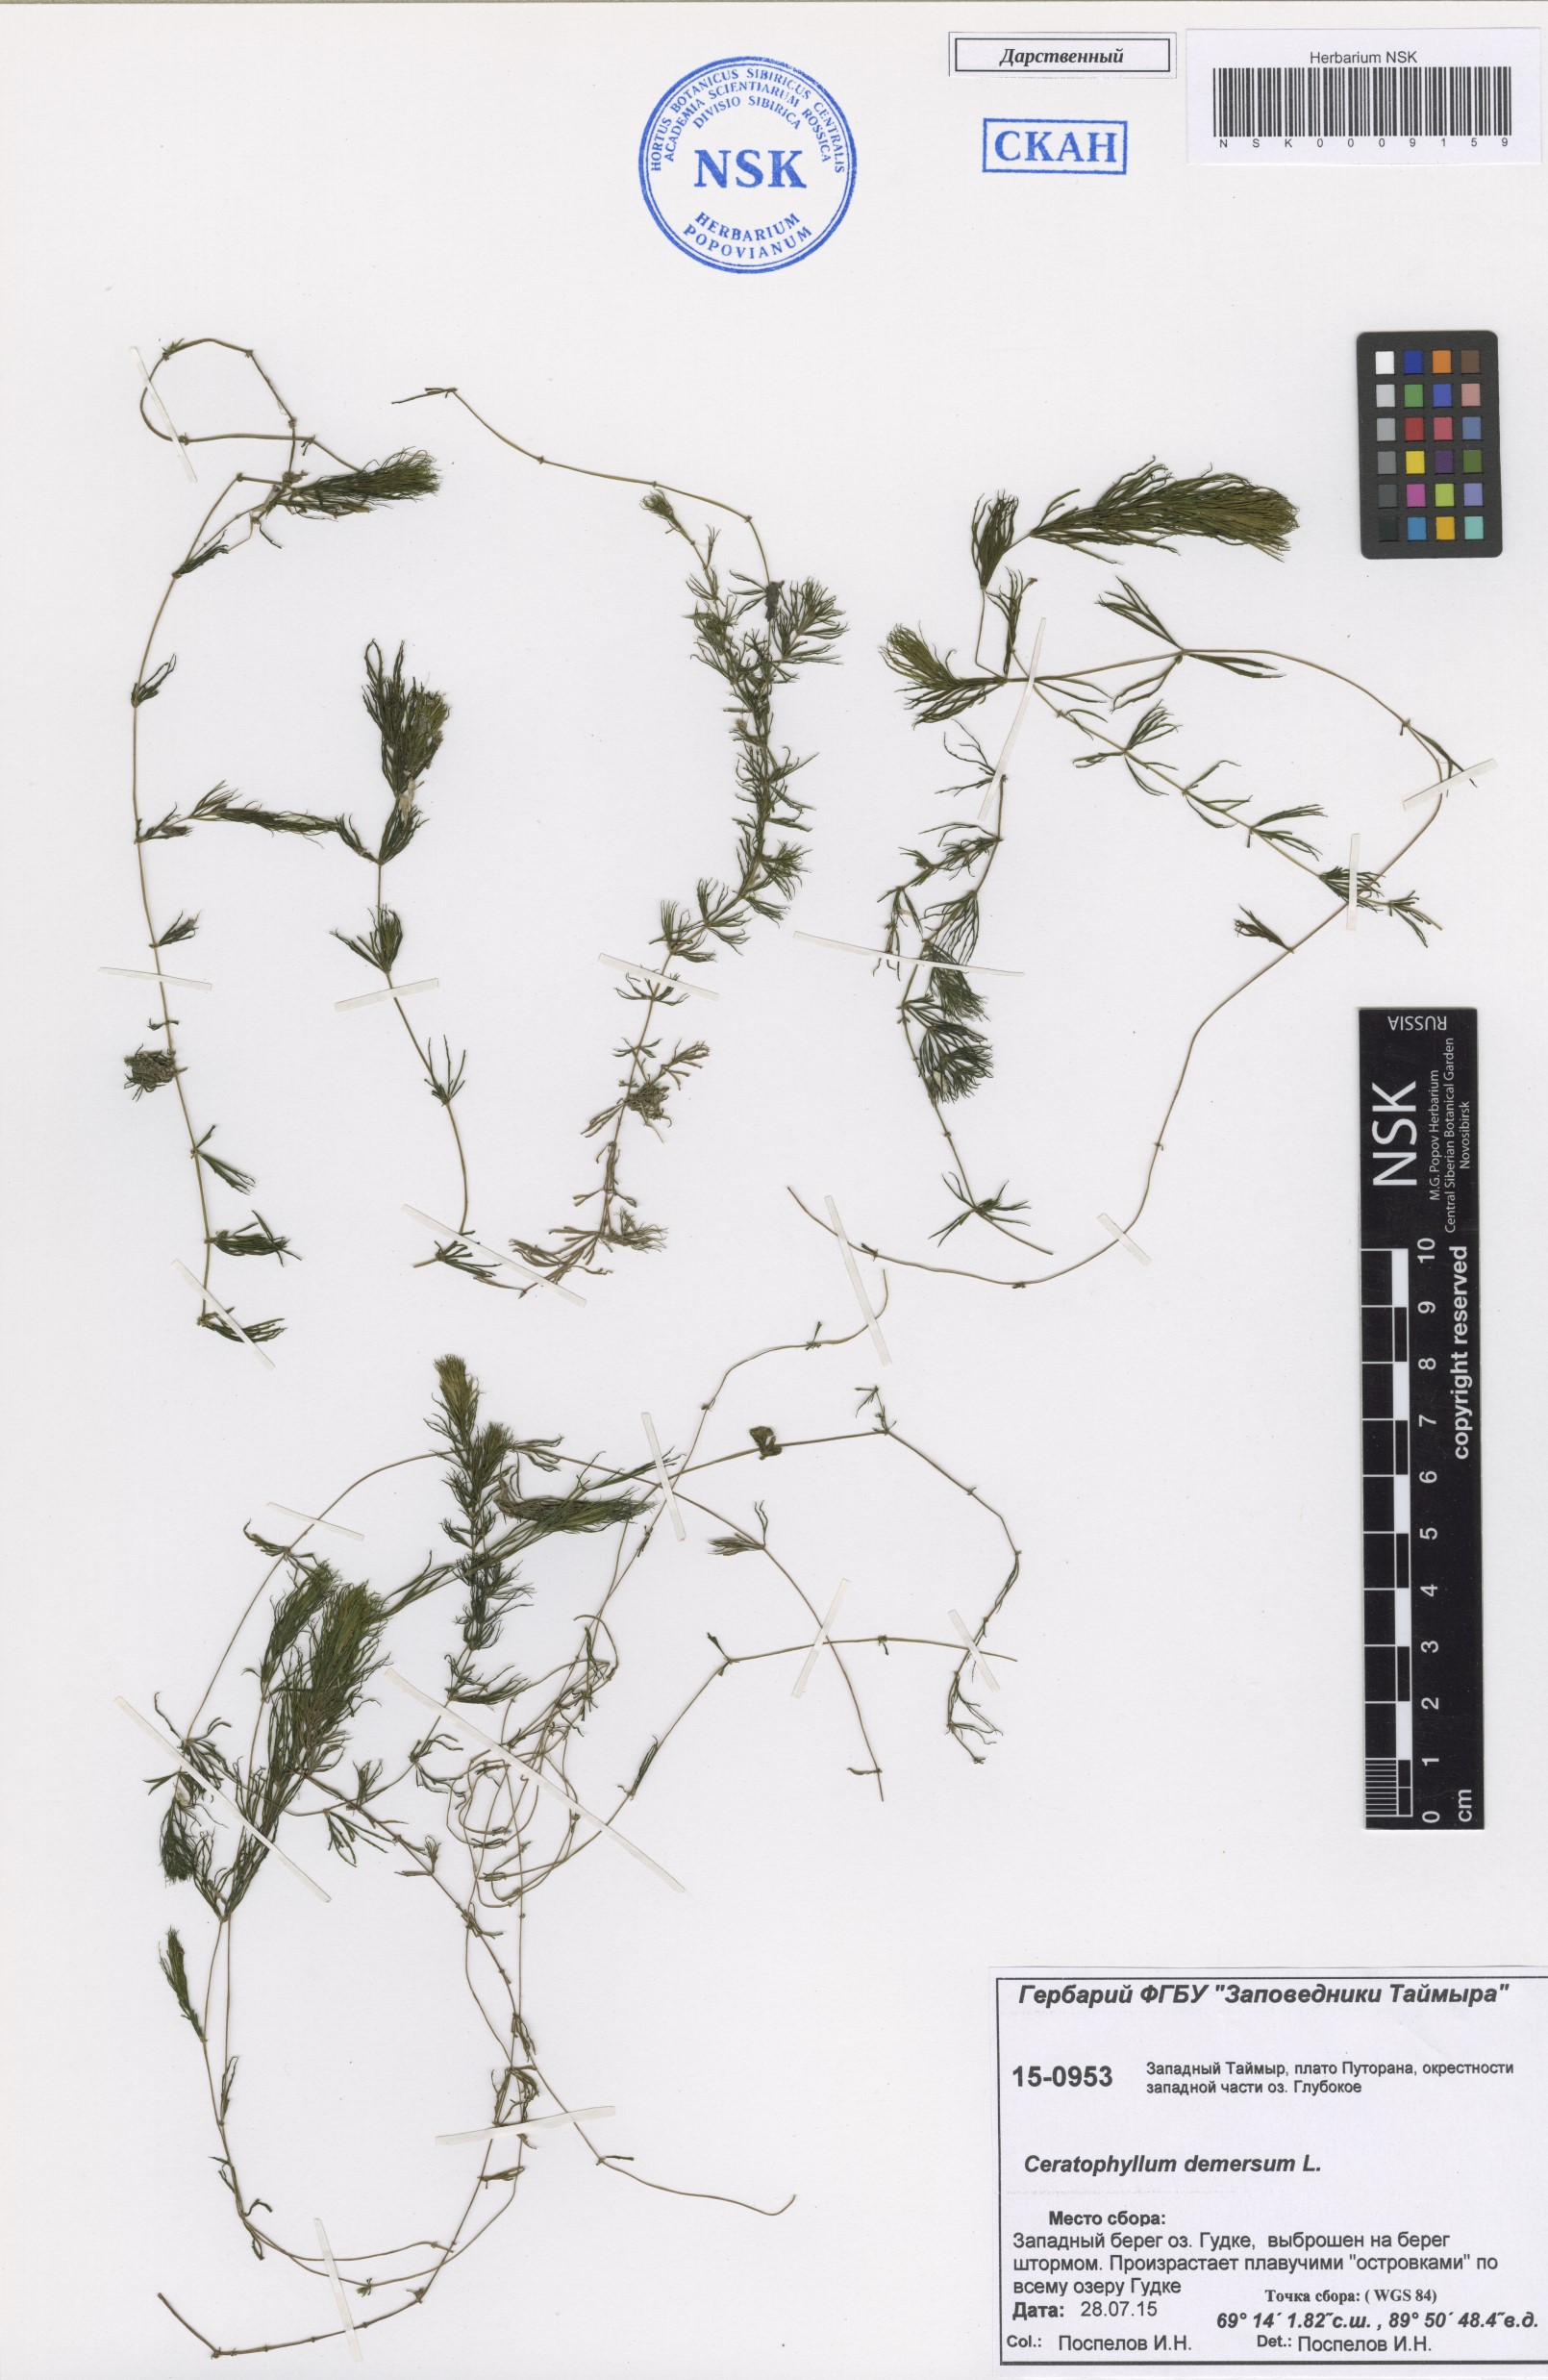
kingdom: Plantae
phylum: Tracheophyta
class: Magnoliopsida
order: Ceratophyllales
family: Ceratophyllaceae
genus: Ceratophyllum
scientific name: Ceratophyllum demersum
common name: Rigid hornwort
